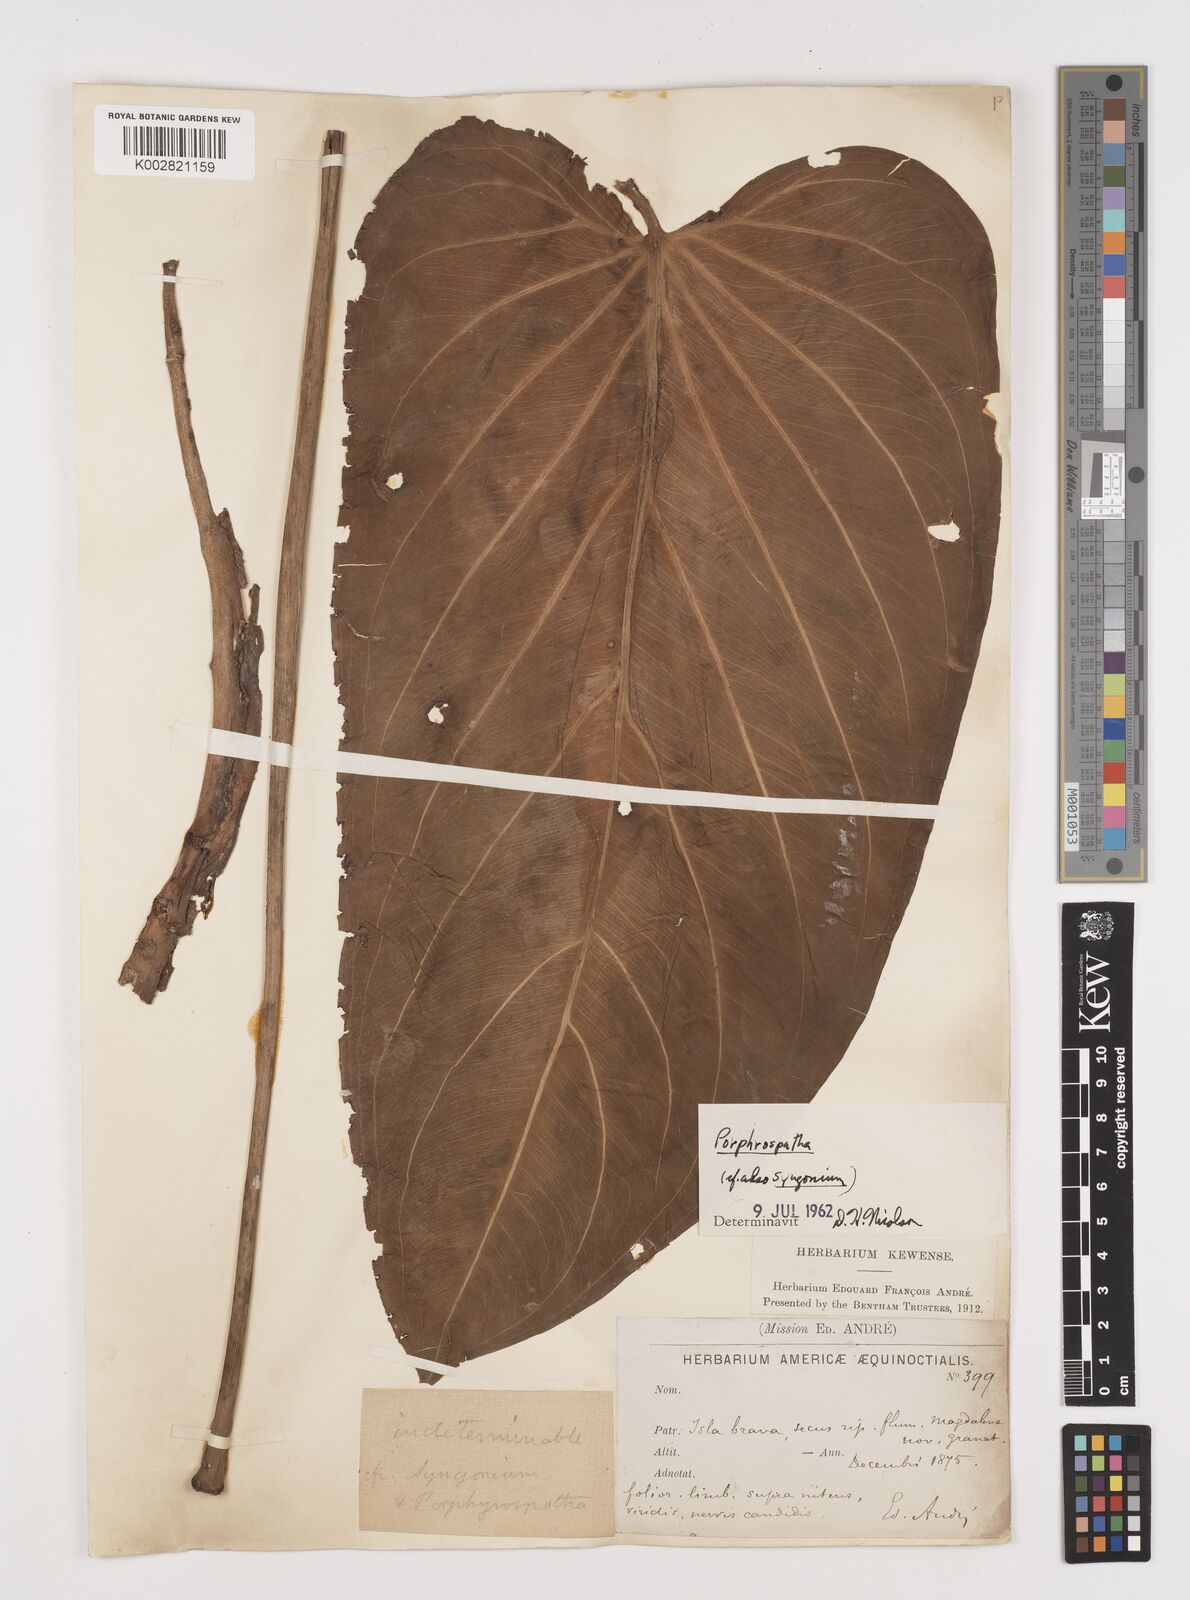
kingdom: Plantae
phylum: Tracheophyta
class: Liliopsida
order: Alismatales
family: Araceae
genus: Syngonium
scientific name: Syngonium schottianum
